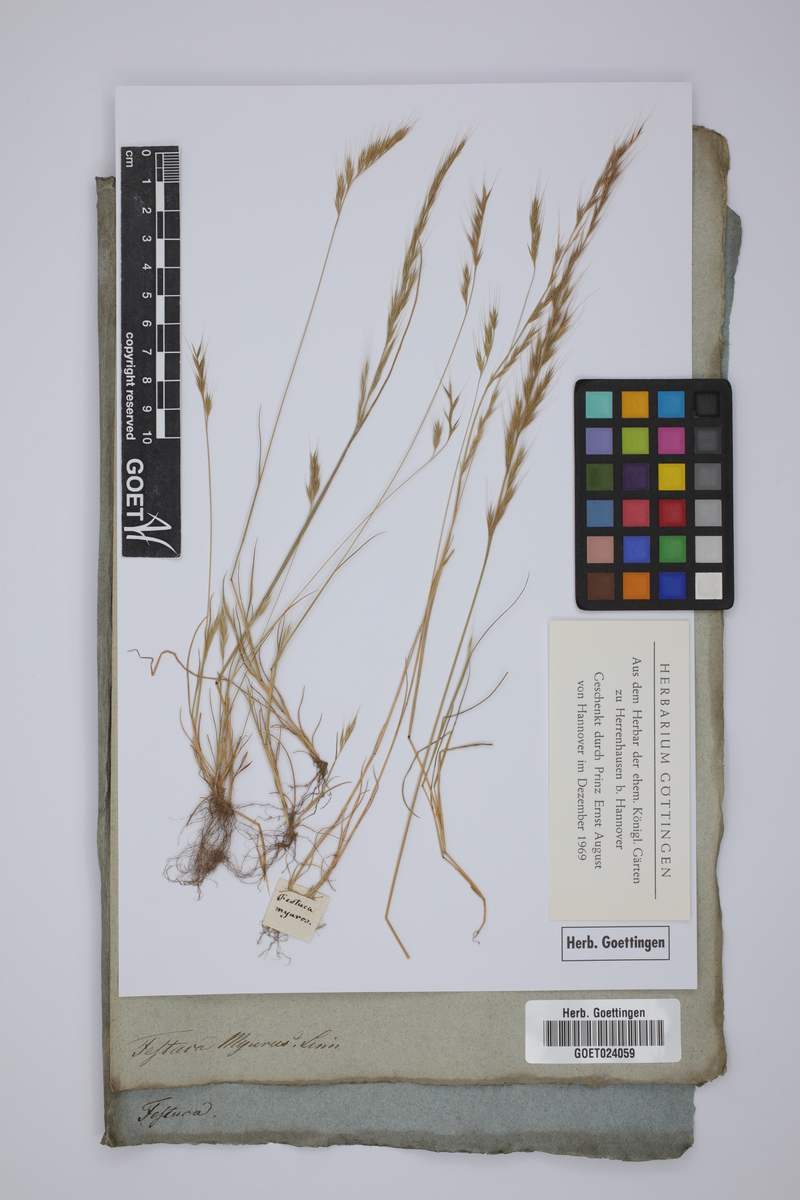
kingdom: Plantae
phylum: Tracheophyta
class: Liliopsida
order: Poales
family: Poaceae
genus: Festuca
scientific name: Festuca myuros
